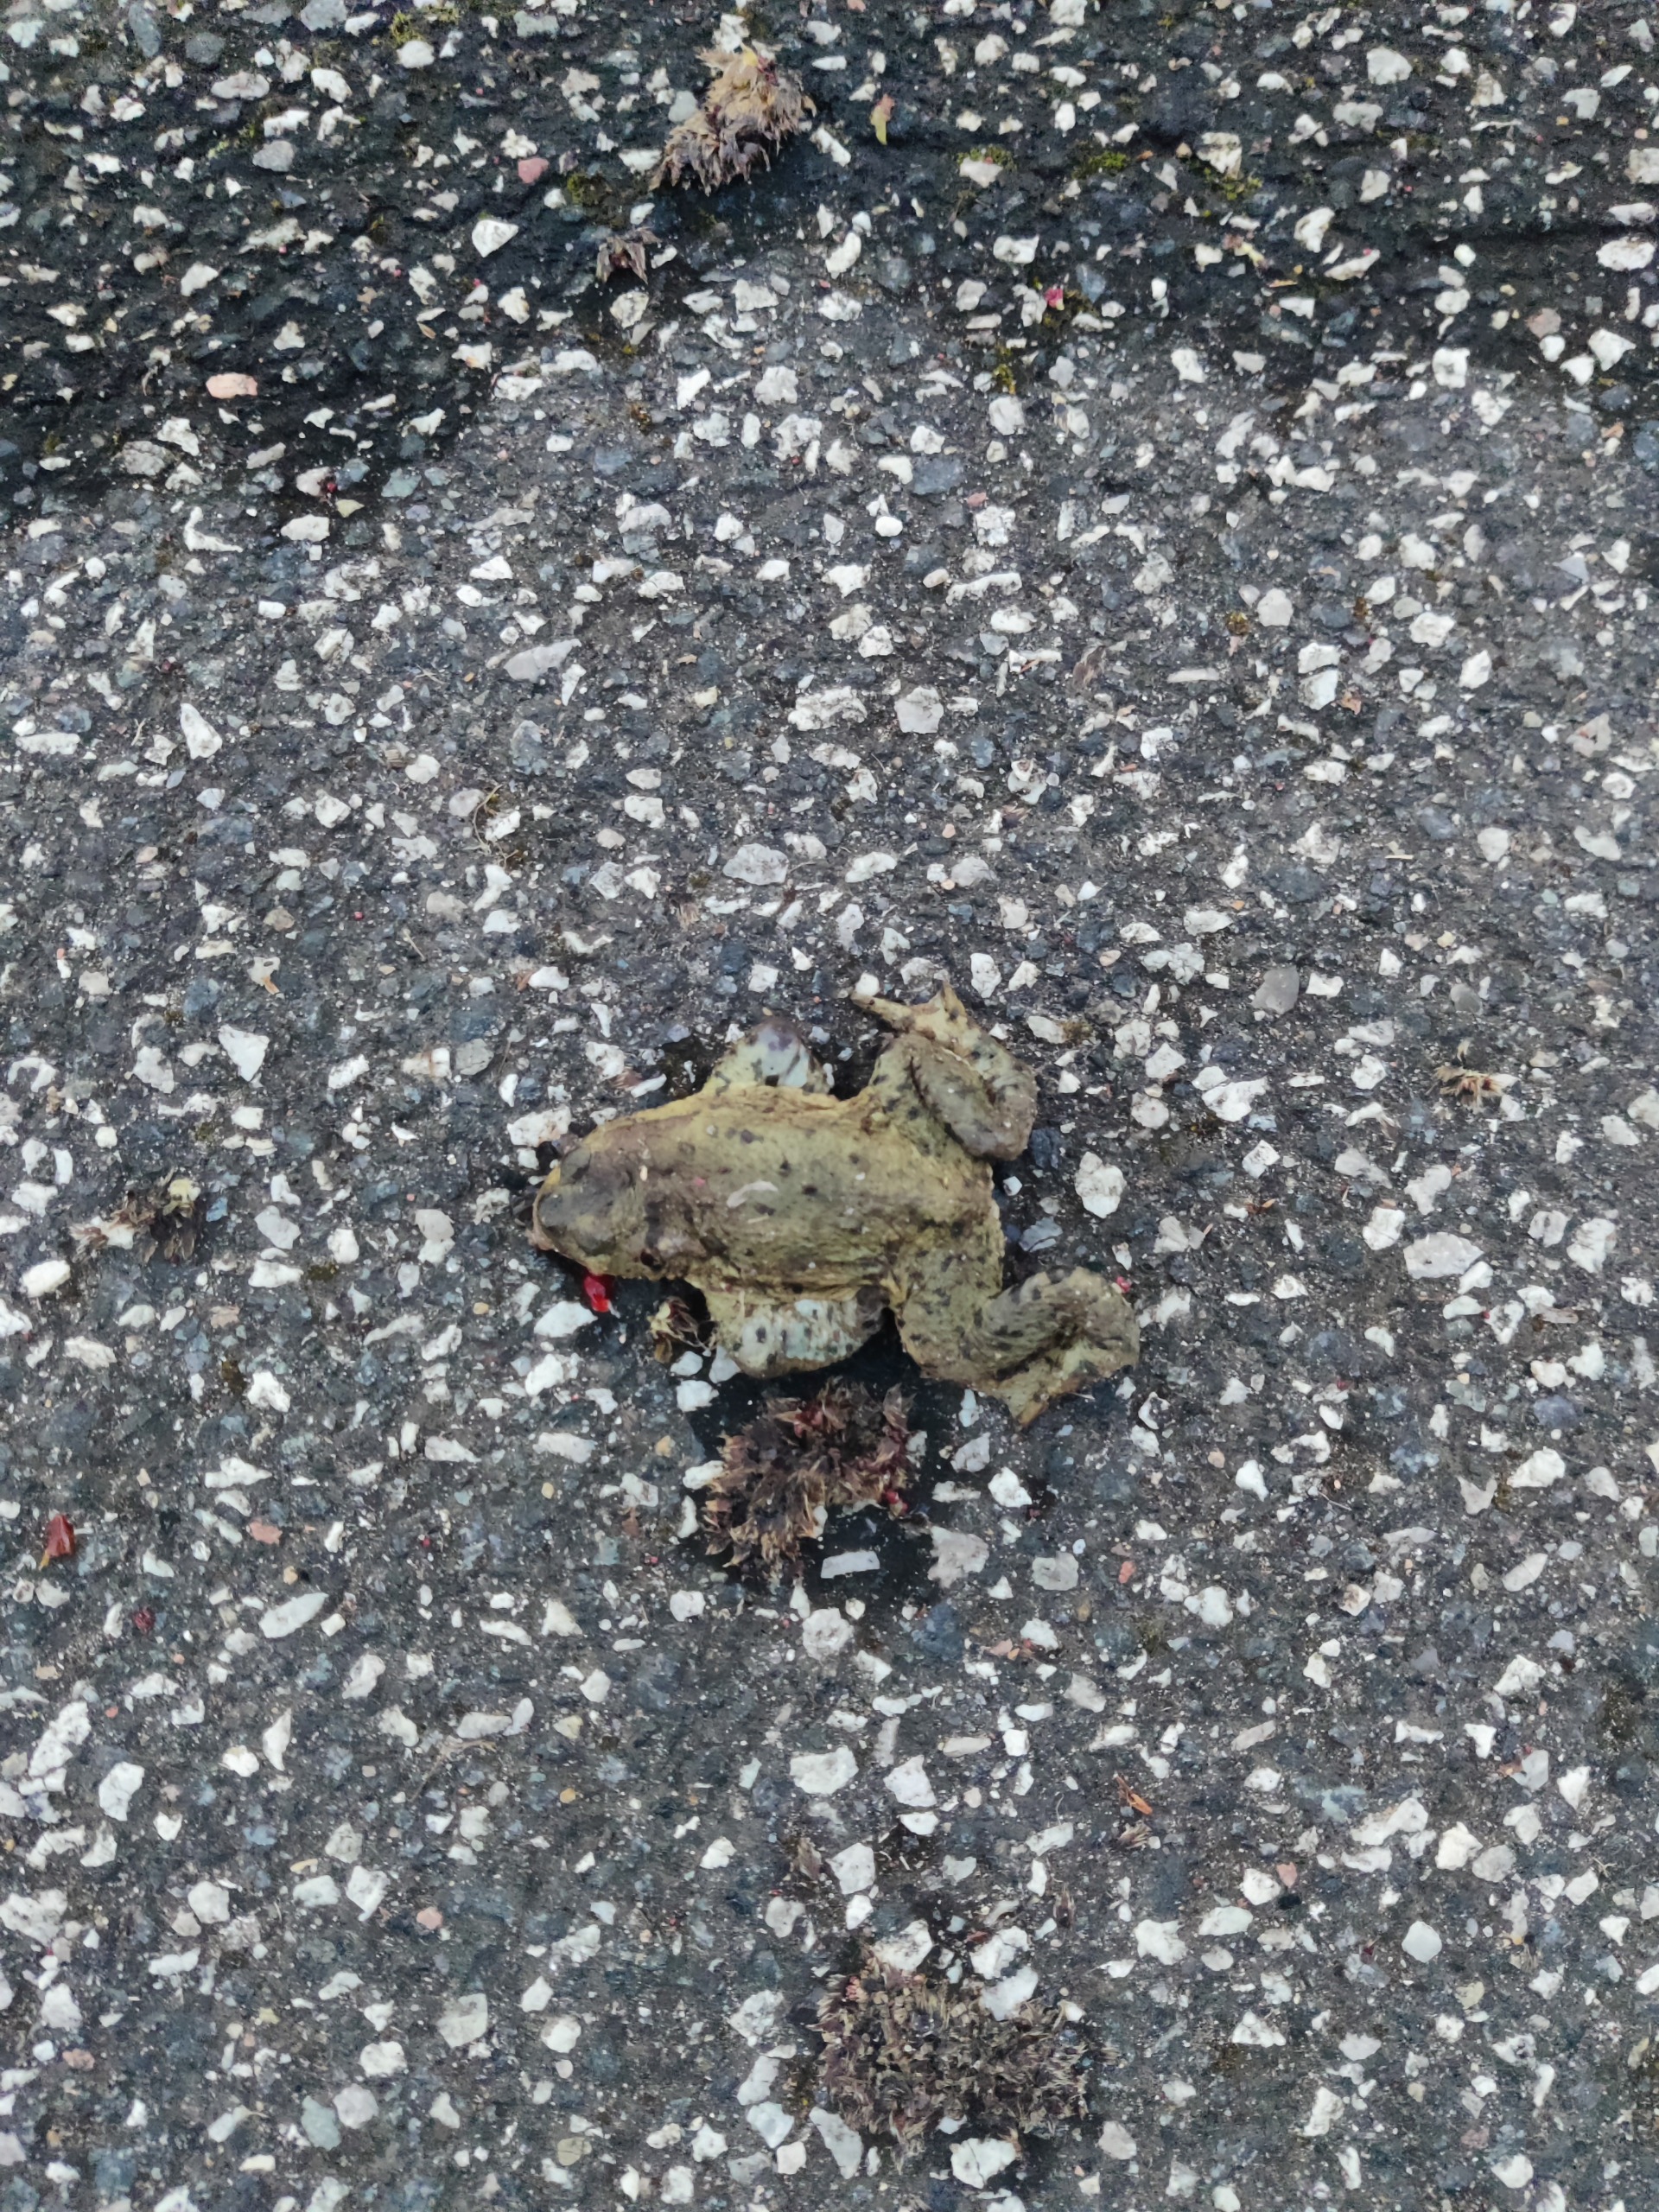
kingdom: Animalia
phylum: Chordata
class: Amphibia
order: Anura
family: Bufonidae
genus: Bufo
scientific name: Bufo bufo
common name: Skrubtudse
